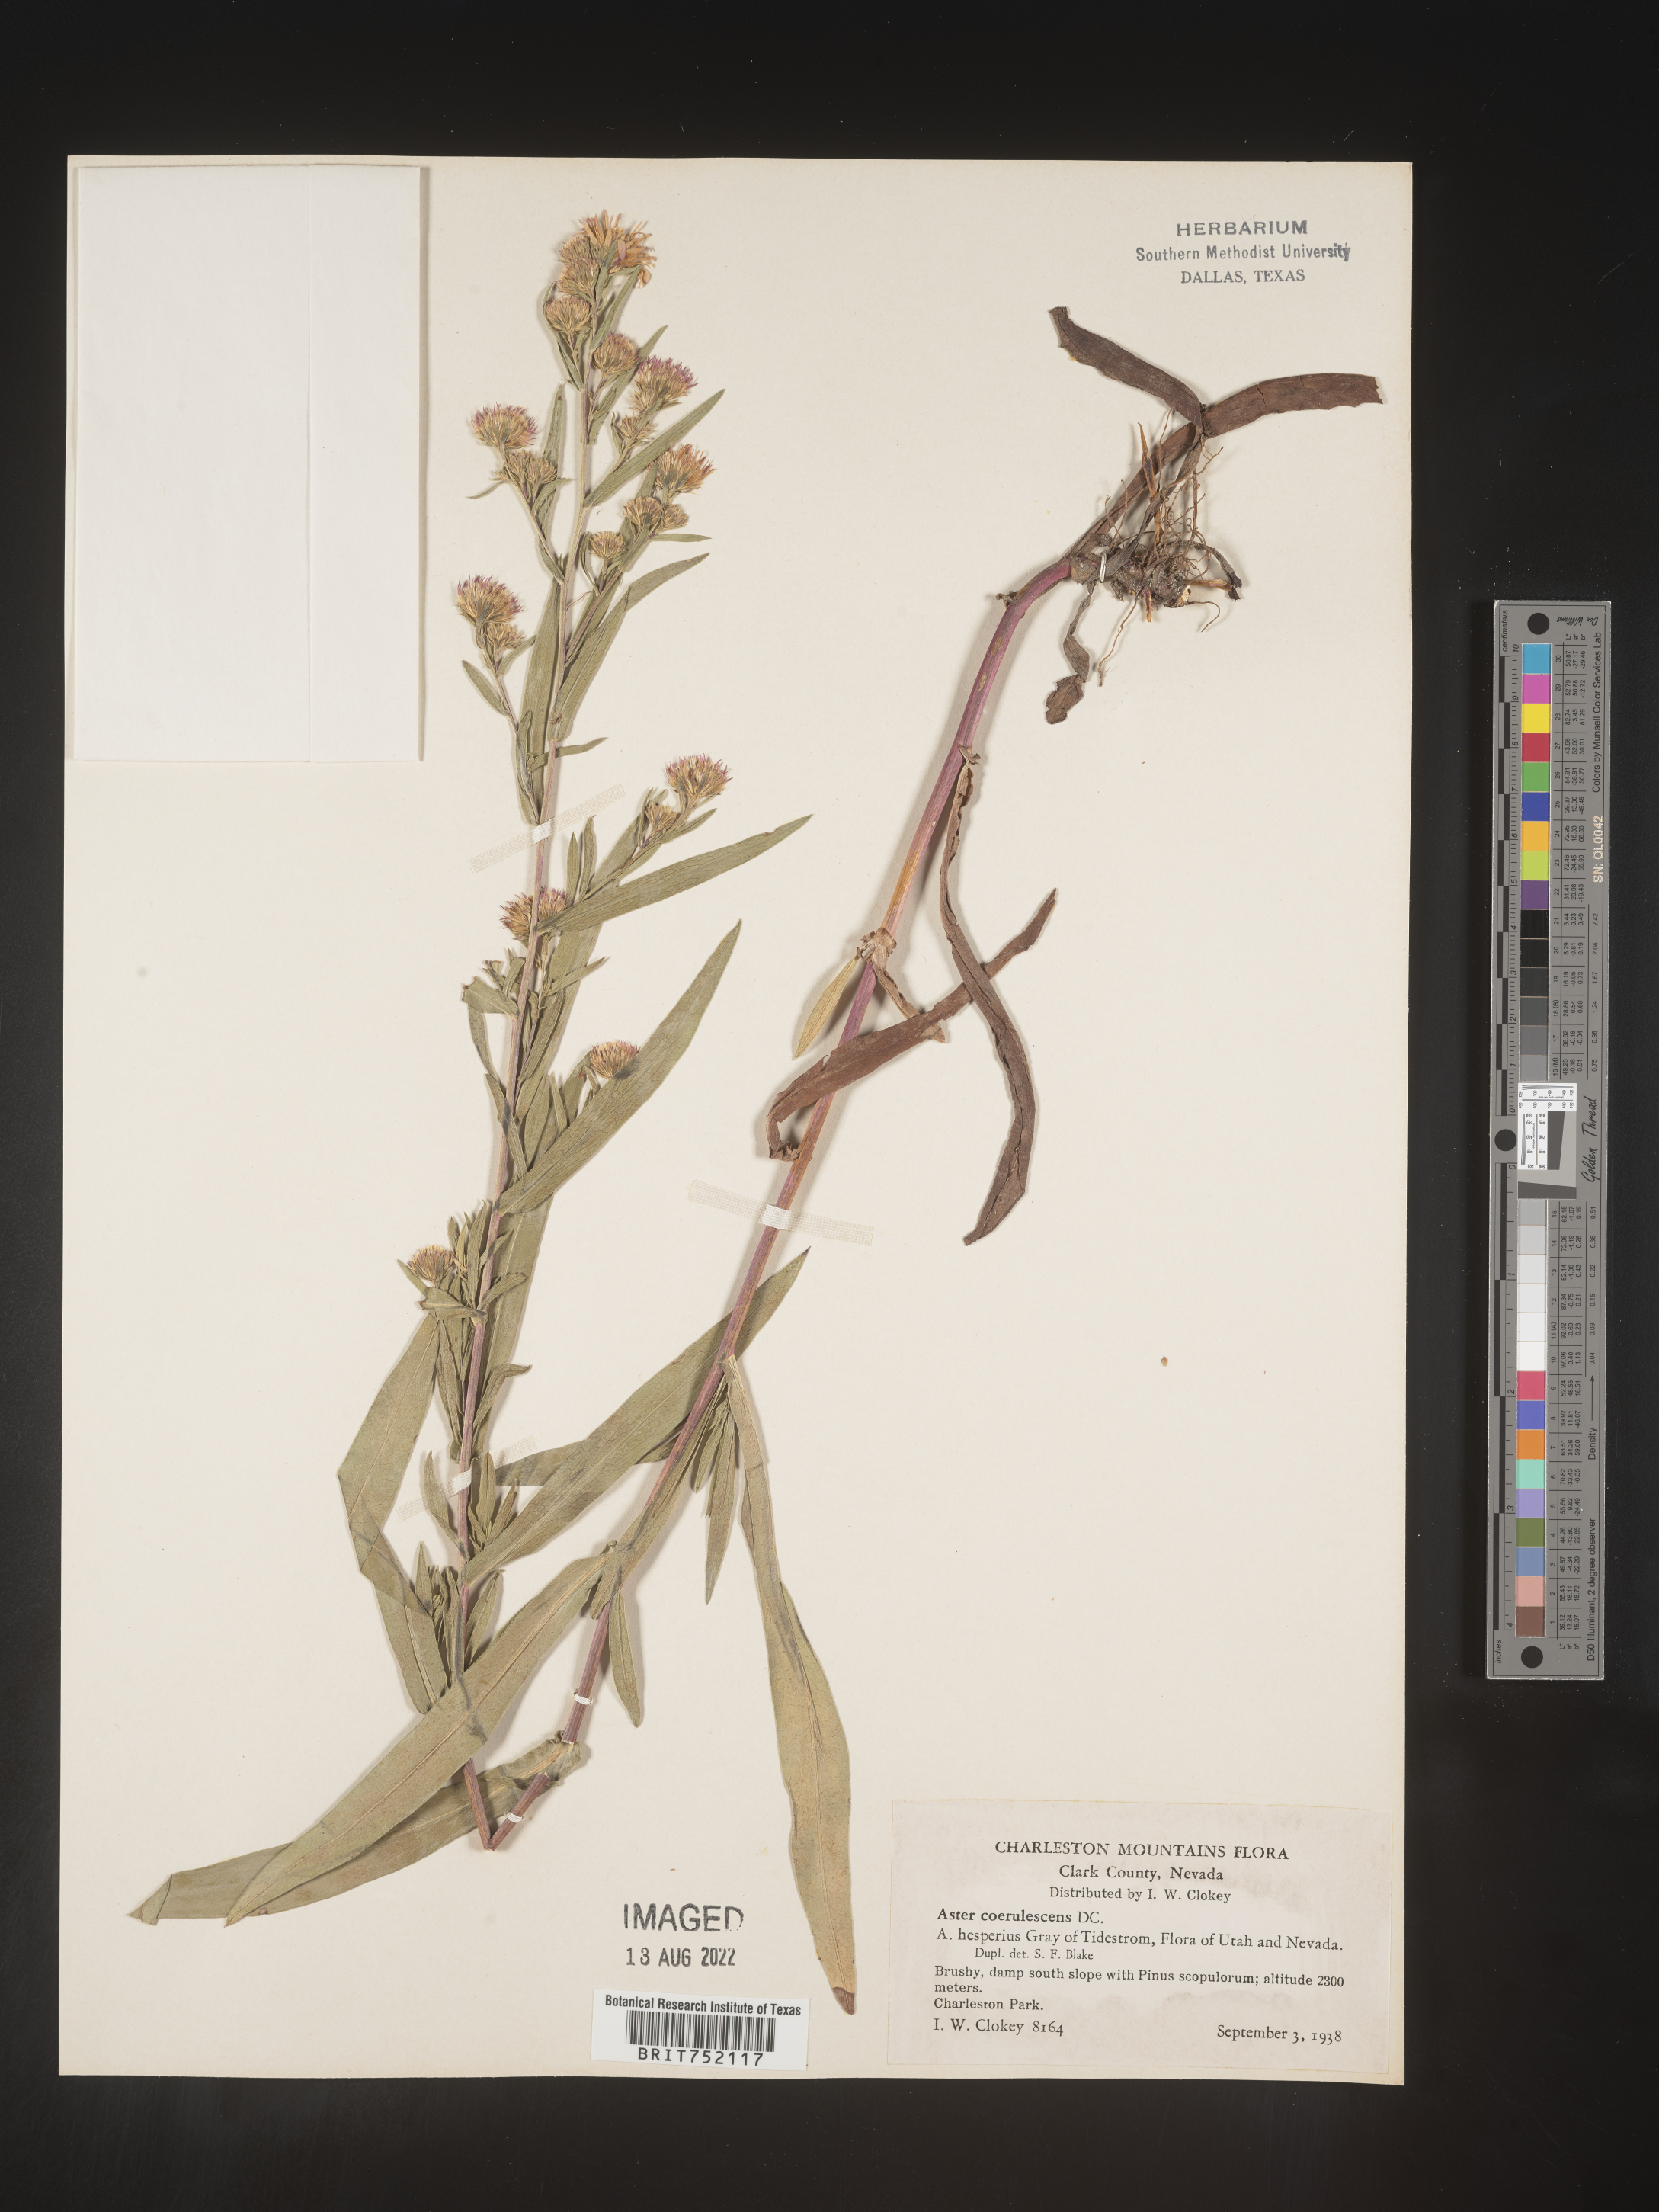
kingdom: Plantae
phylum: Tracheophyta
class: Magnoliopsida
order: Asterales
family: Asteraceae
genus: Symphyotrichum
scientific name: Symphyotrichum bracteolatum
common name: Eaton's aster
